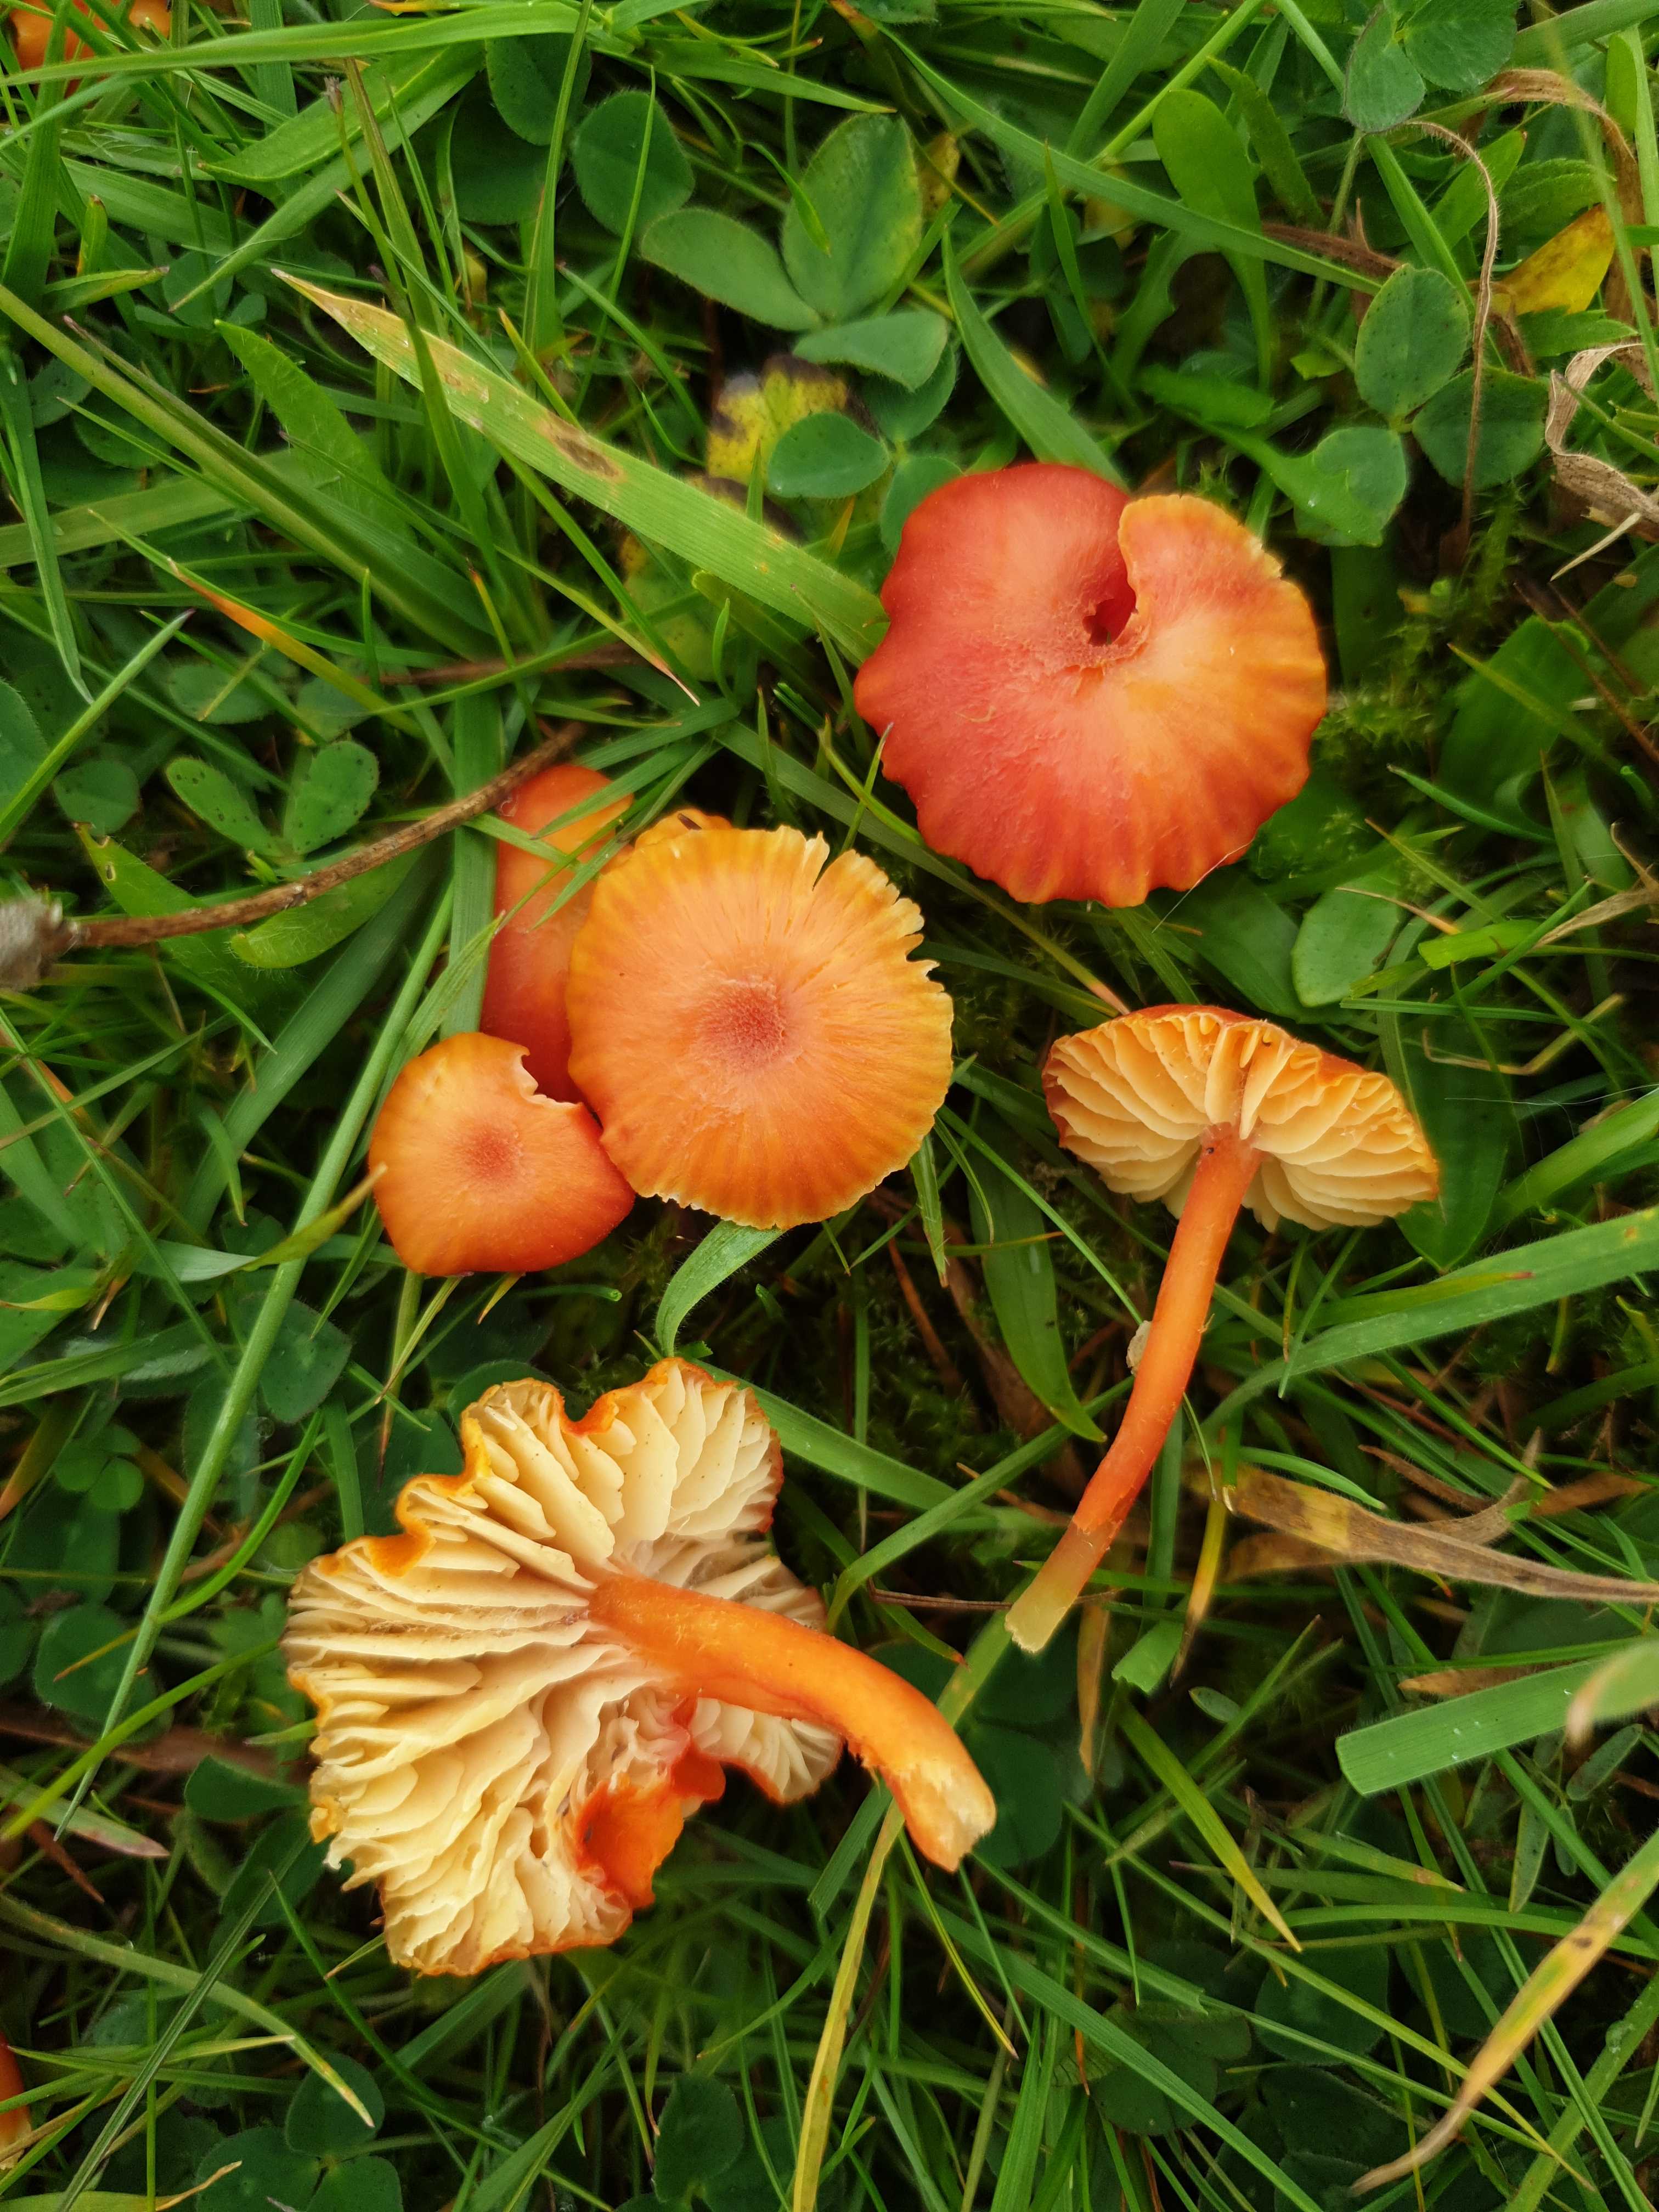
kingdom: Fungi
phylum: Basidiomycota
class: Agaricomycetes
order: Agaricales
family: Hygrophoraceae
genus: Hygrocybe
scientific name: Hygrocybe helobia
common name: hvidløgs-vokshat
